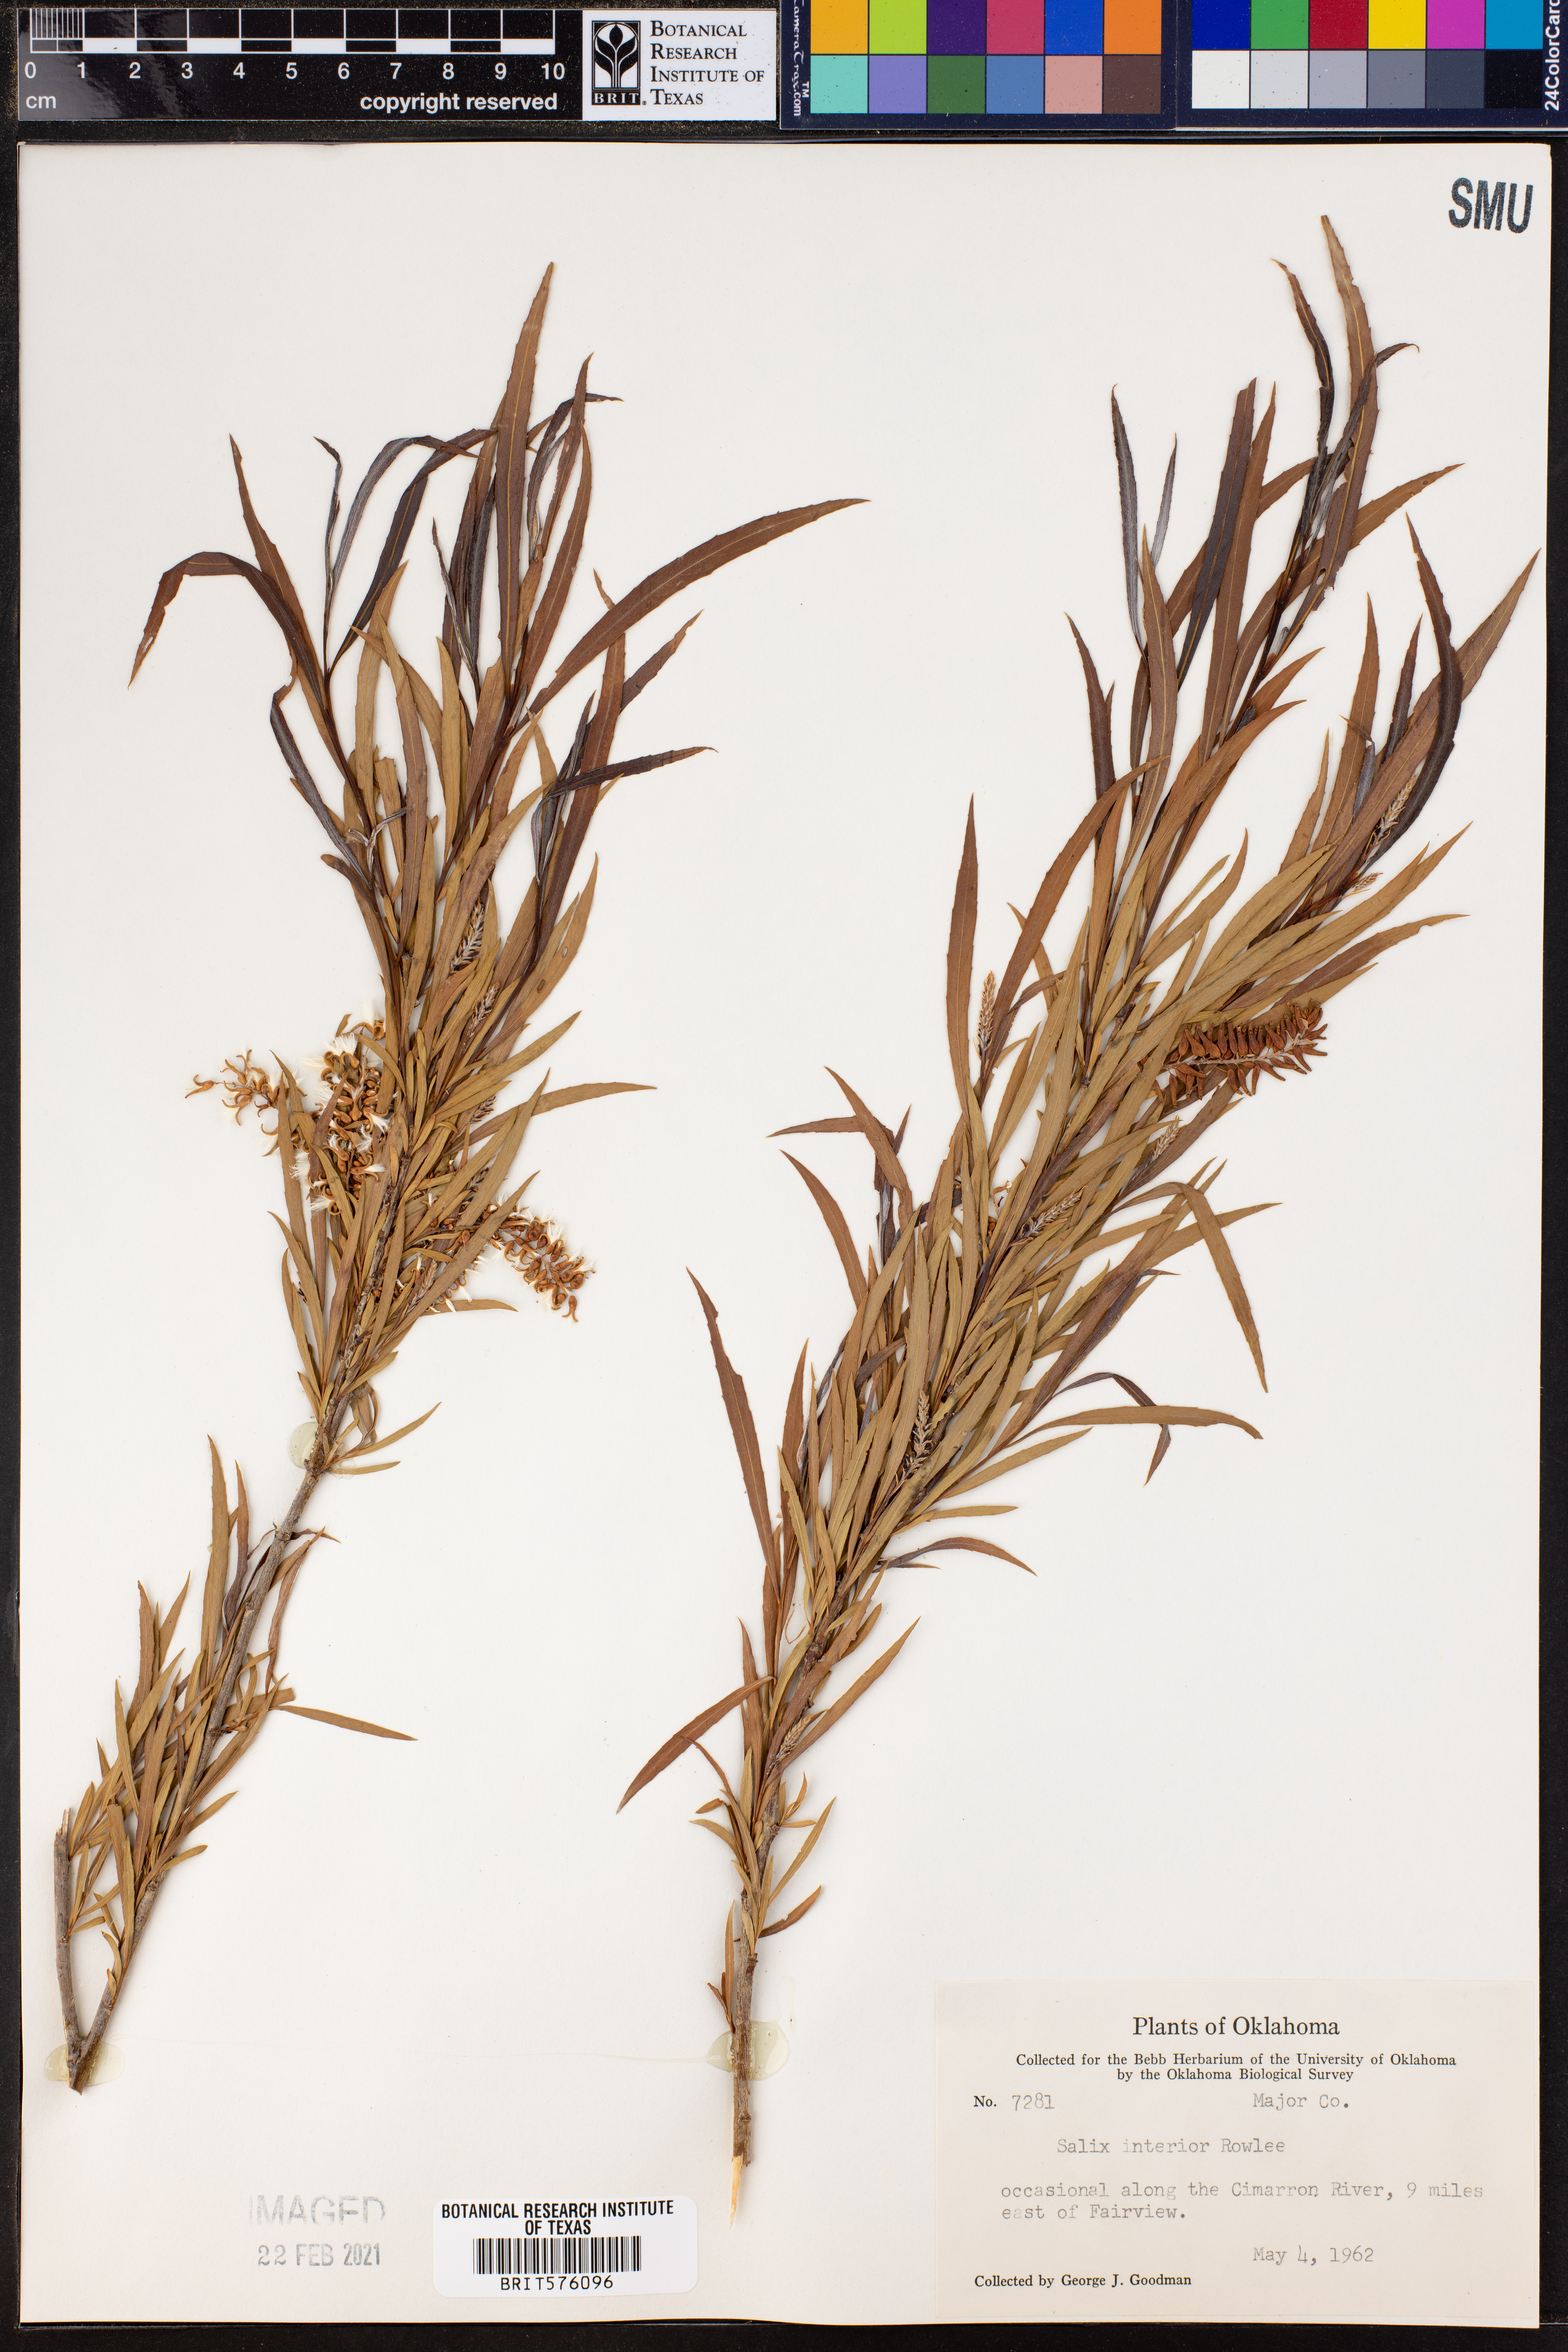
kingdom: Plantae
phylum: Tracheophyta
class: Magnoliopsida
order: Malpighiales
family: Salicaceae
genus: Salix
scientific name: Salix interior
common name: Sandbar willow
